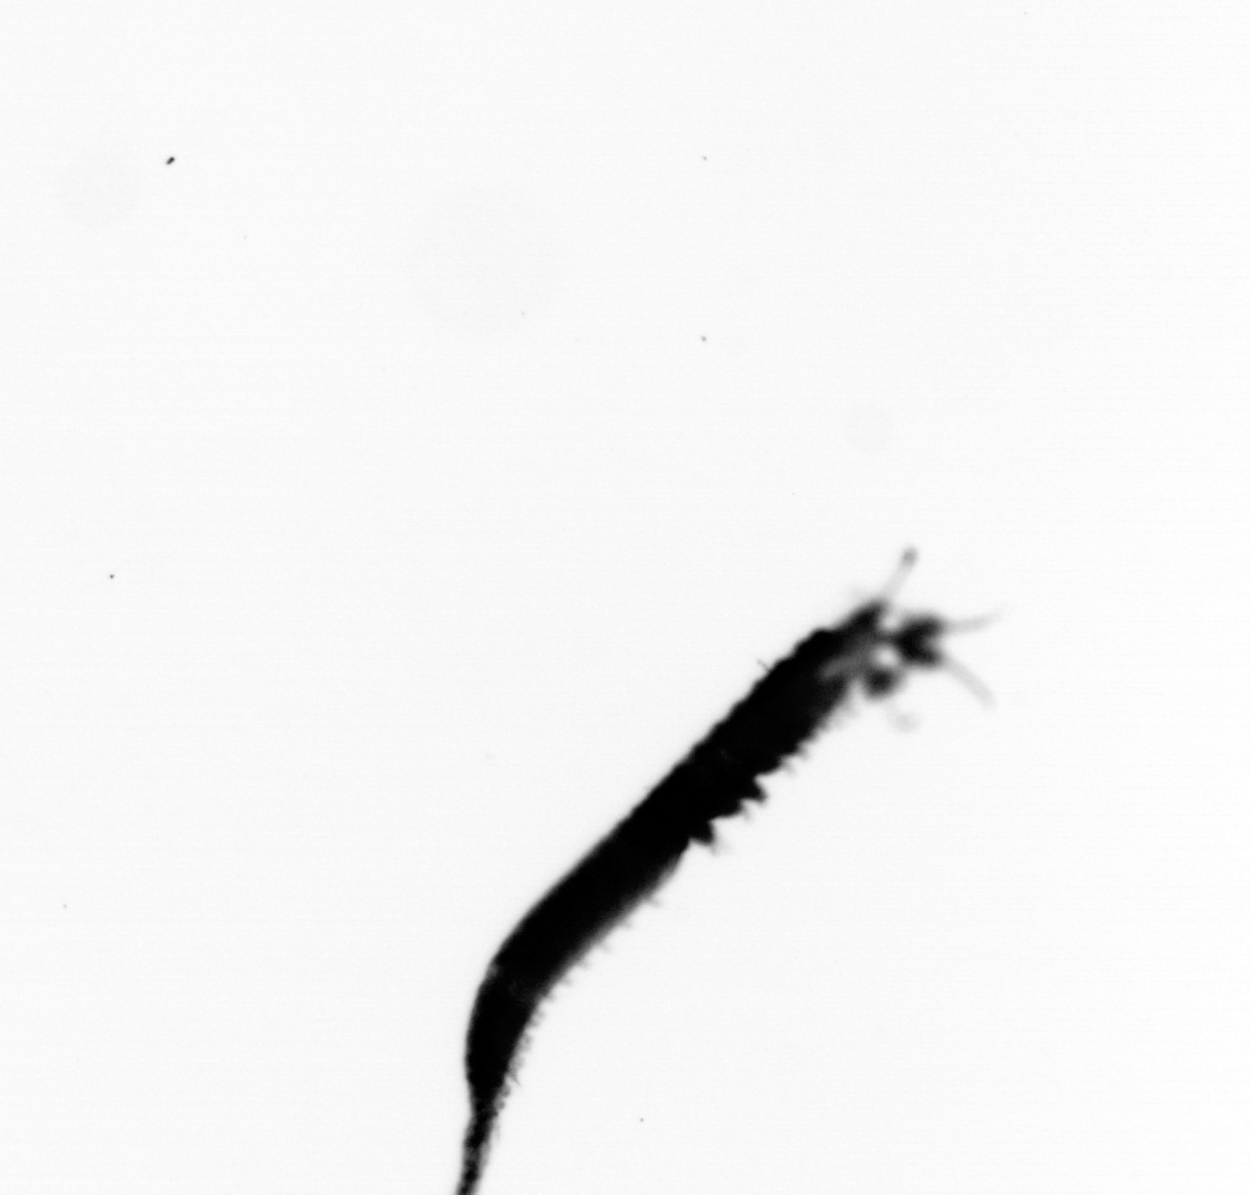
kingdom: Animalia
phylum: Annelida
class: Polychaeta
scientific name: Polychaeta
